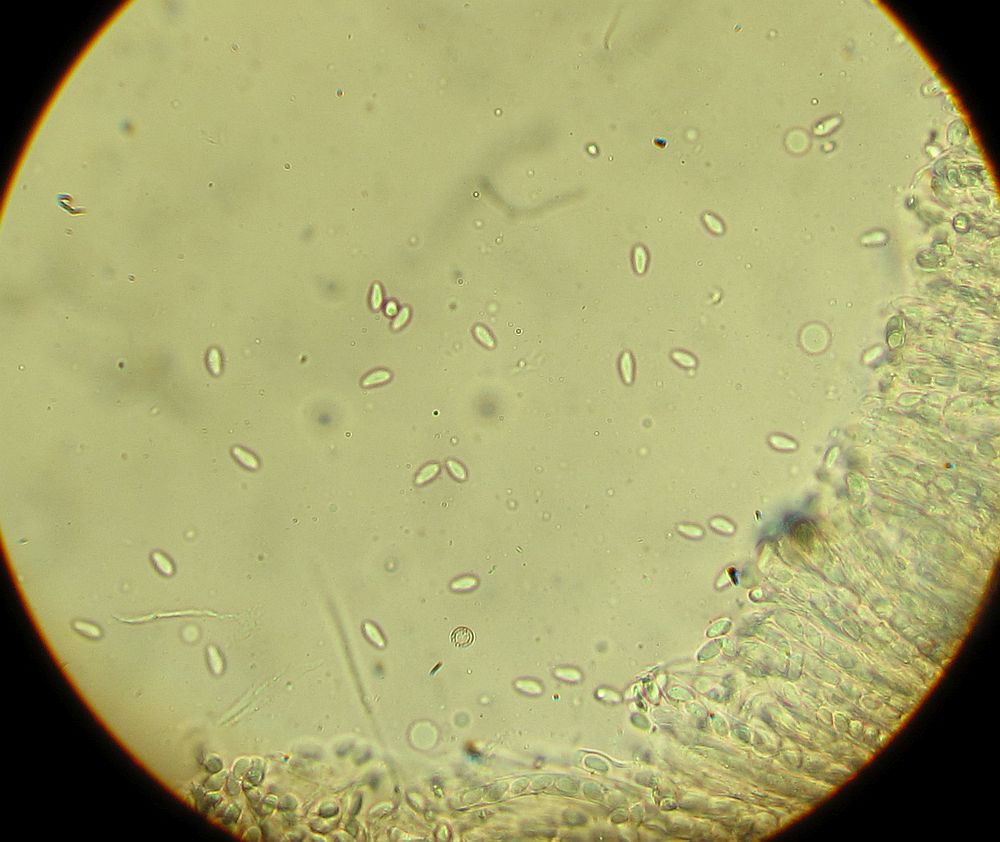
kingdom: Fungi
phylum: Ascomycota
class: Leotiomycetes
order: Helotiales
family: Sclerotiniaceae
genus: Ciboria
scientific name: Ciboria amentacea
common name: ellerakle-knoldskive
